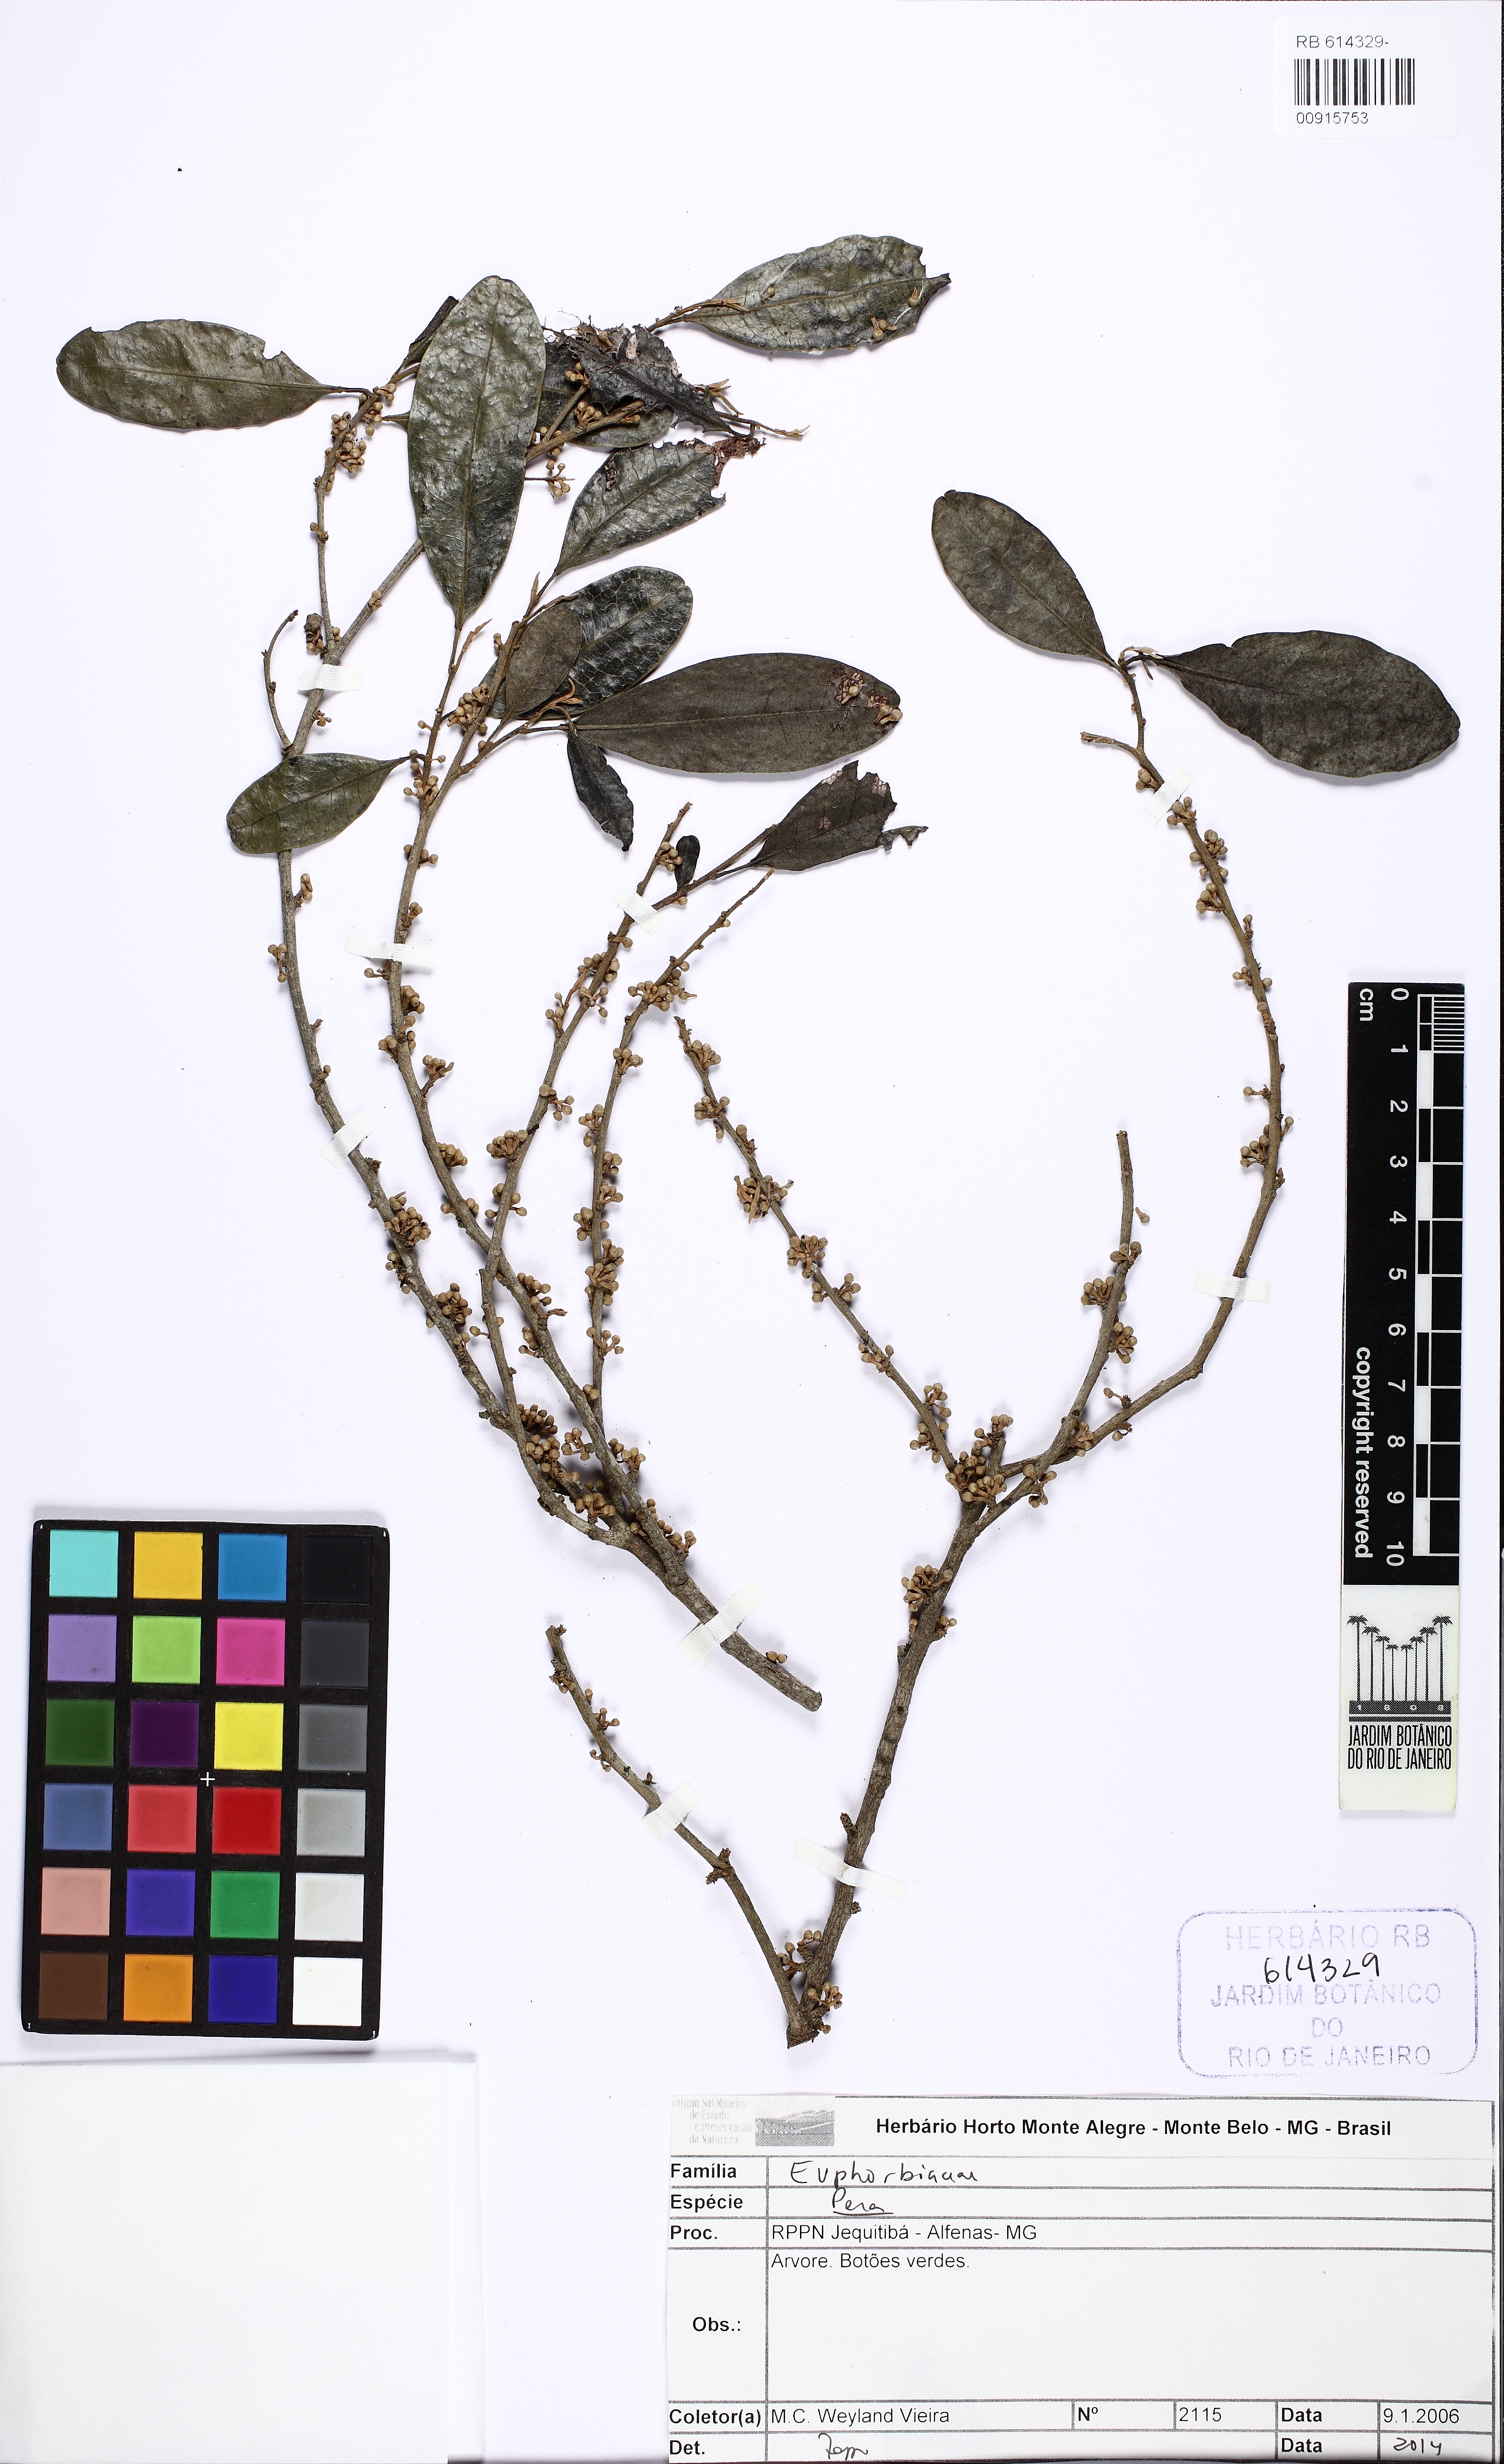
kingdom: Plantae
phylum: Tracheophyta
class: Magnoliopsida
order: Malpighiales
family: Peraceae
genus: Pera
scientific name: Pera glabrata
